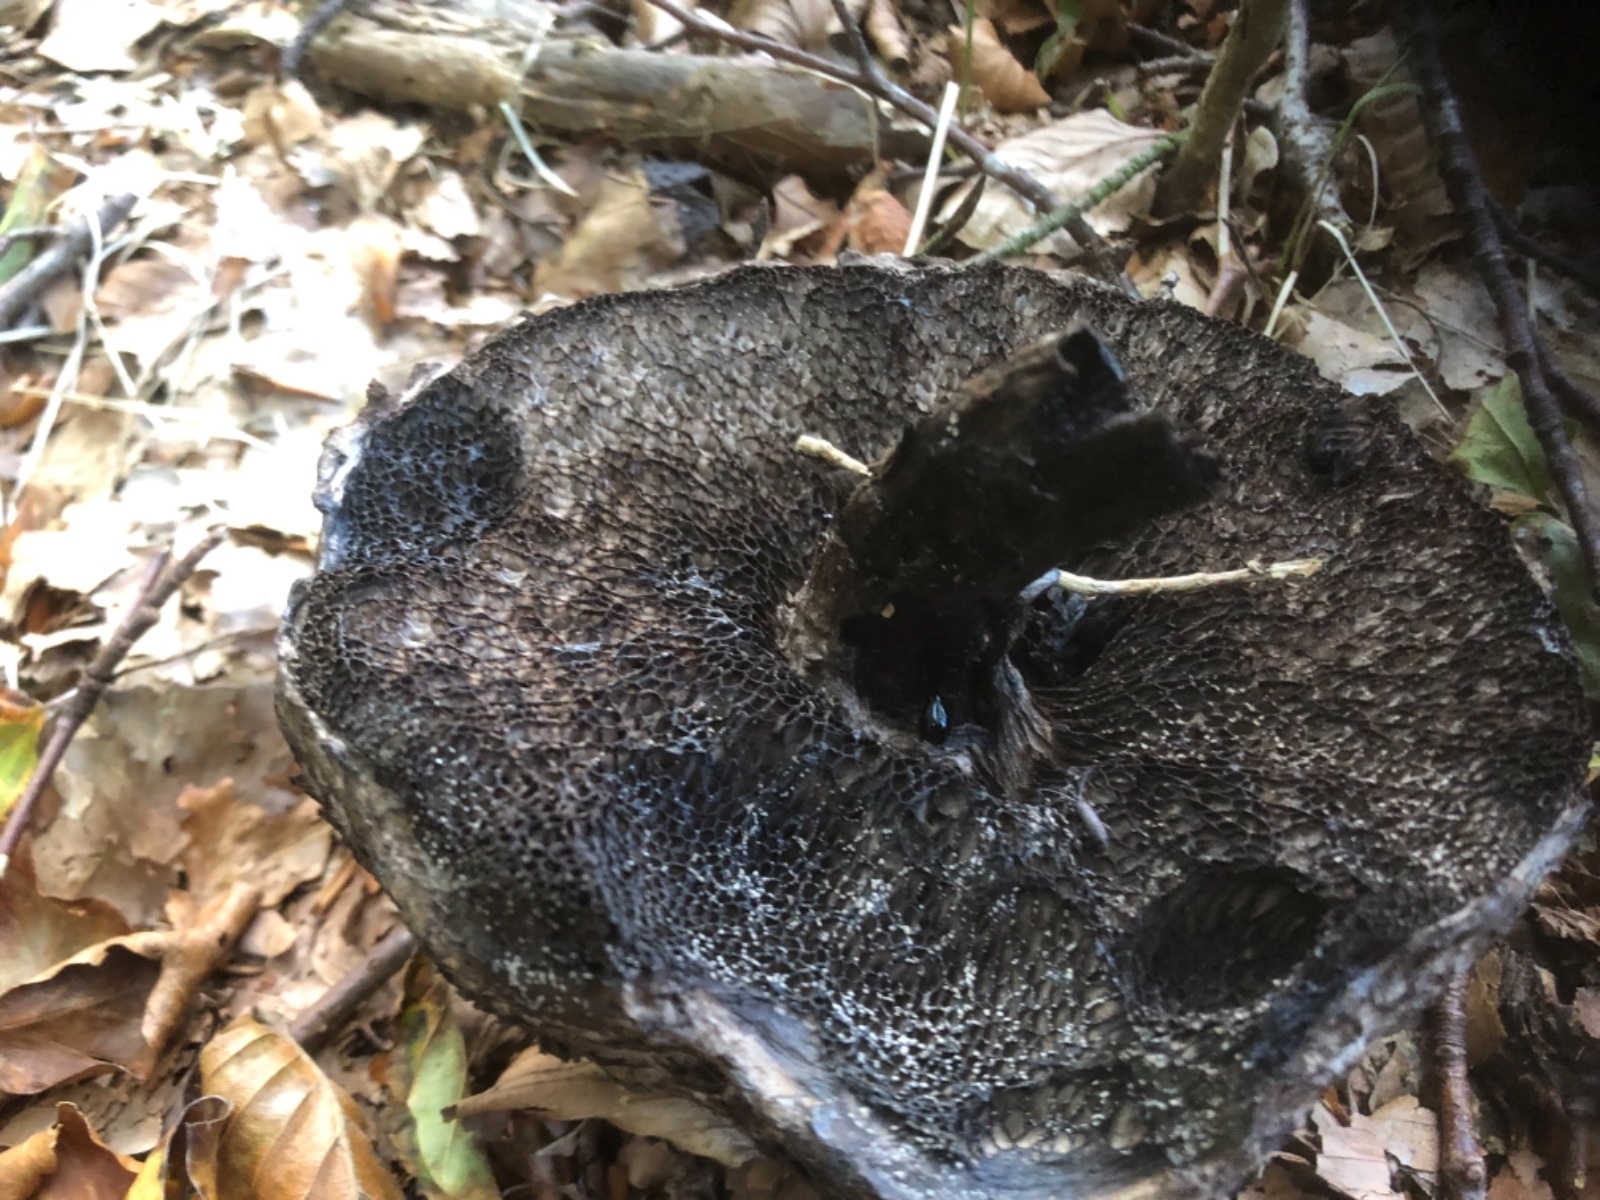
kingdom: Fungi
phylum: Basidiomycota
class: Agaricomycetes
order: Boletales
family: Boletaceae
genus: Strobilomyces
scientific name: Strobilomyces strobilaceus
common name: koglerørhat
